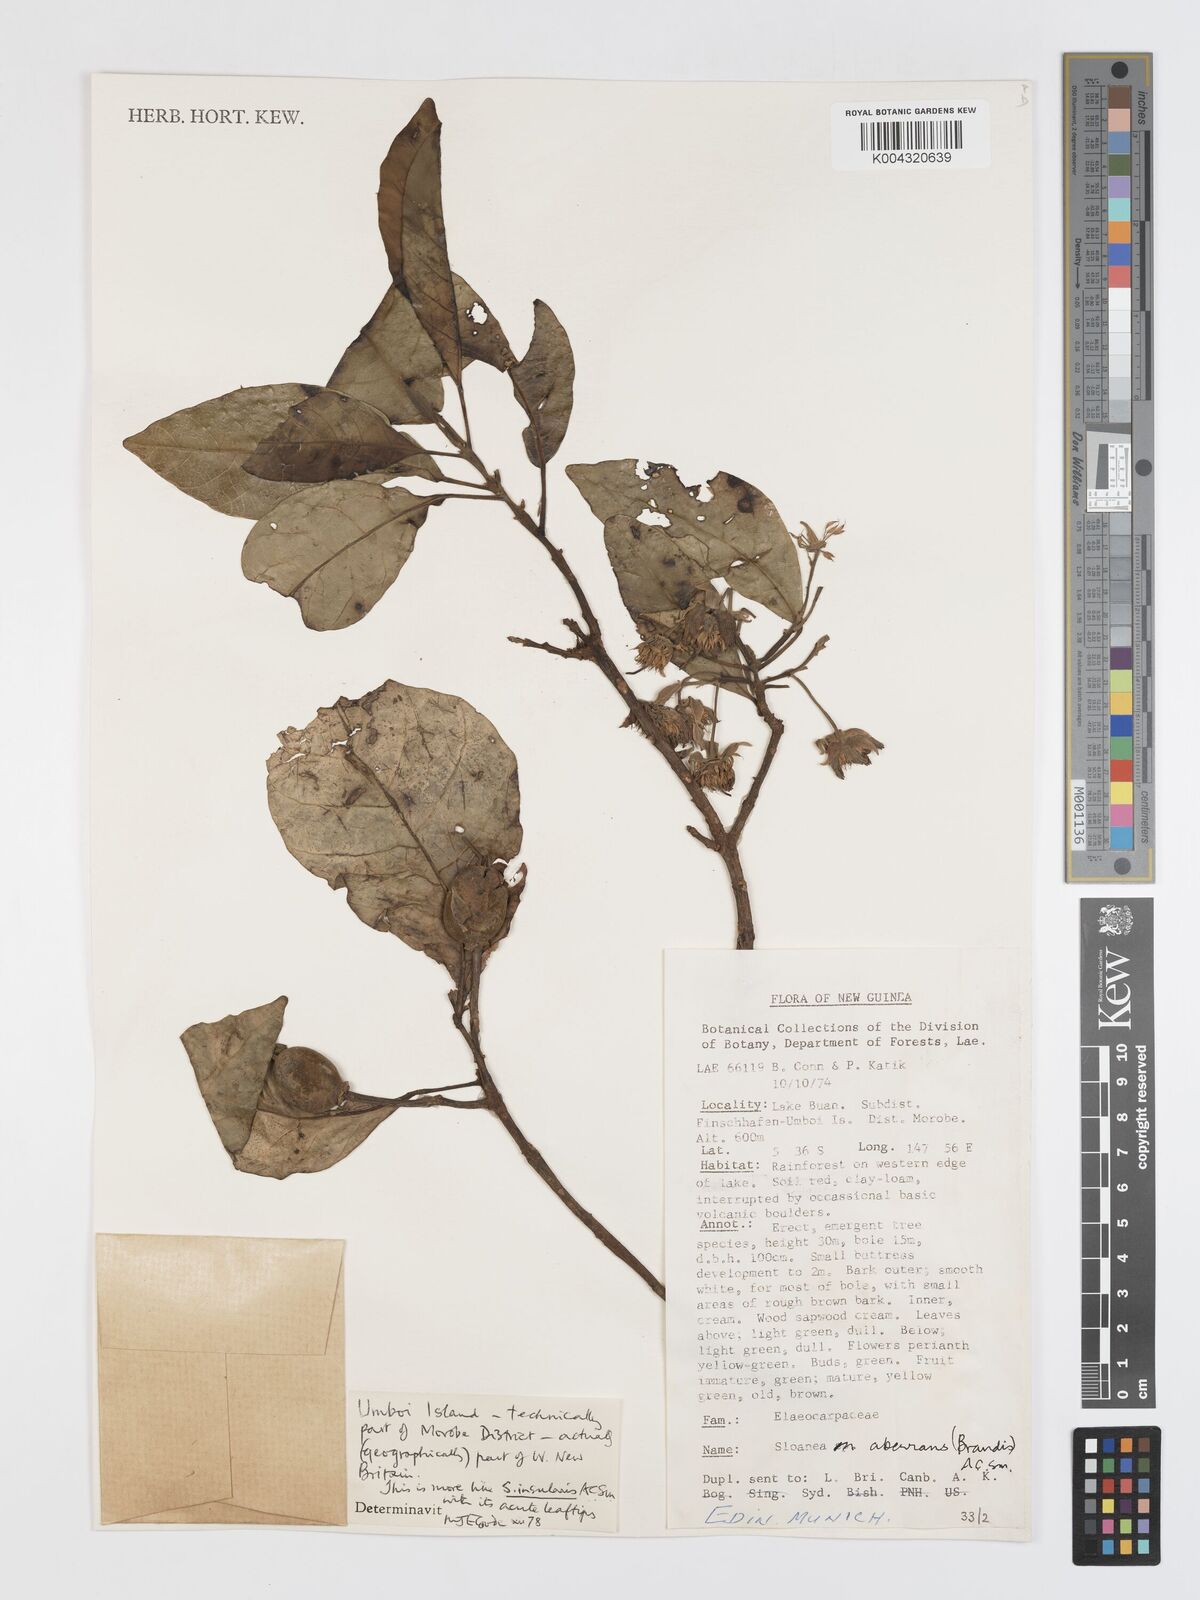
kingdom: Plantae
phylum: Tracheophyta
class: Magnoliopsida
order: Oxalidales
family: Elaeocarpaceae
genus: Sloanea
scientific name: Sloanea insularis
